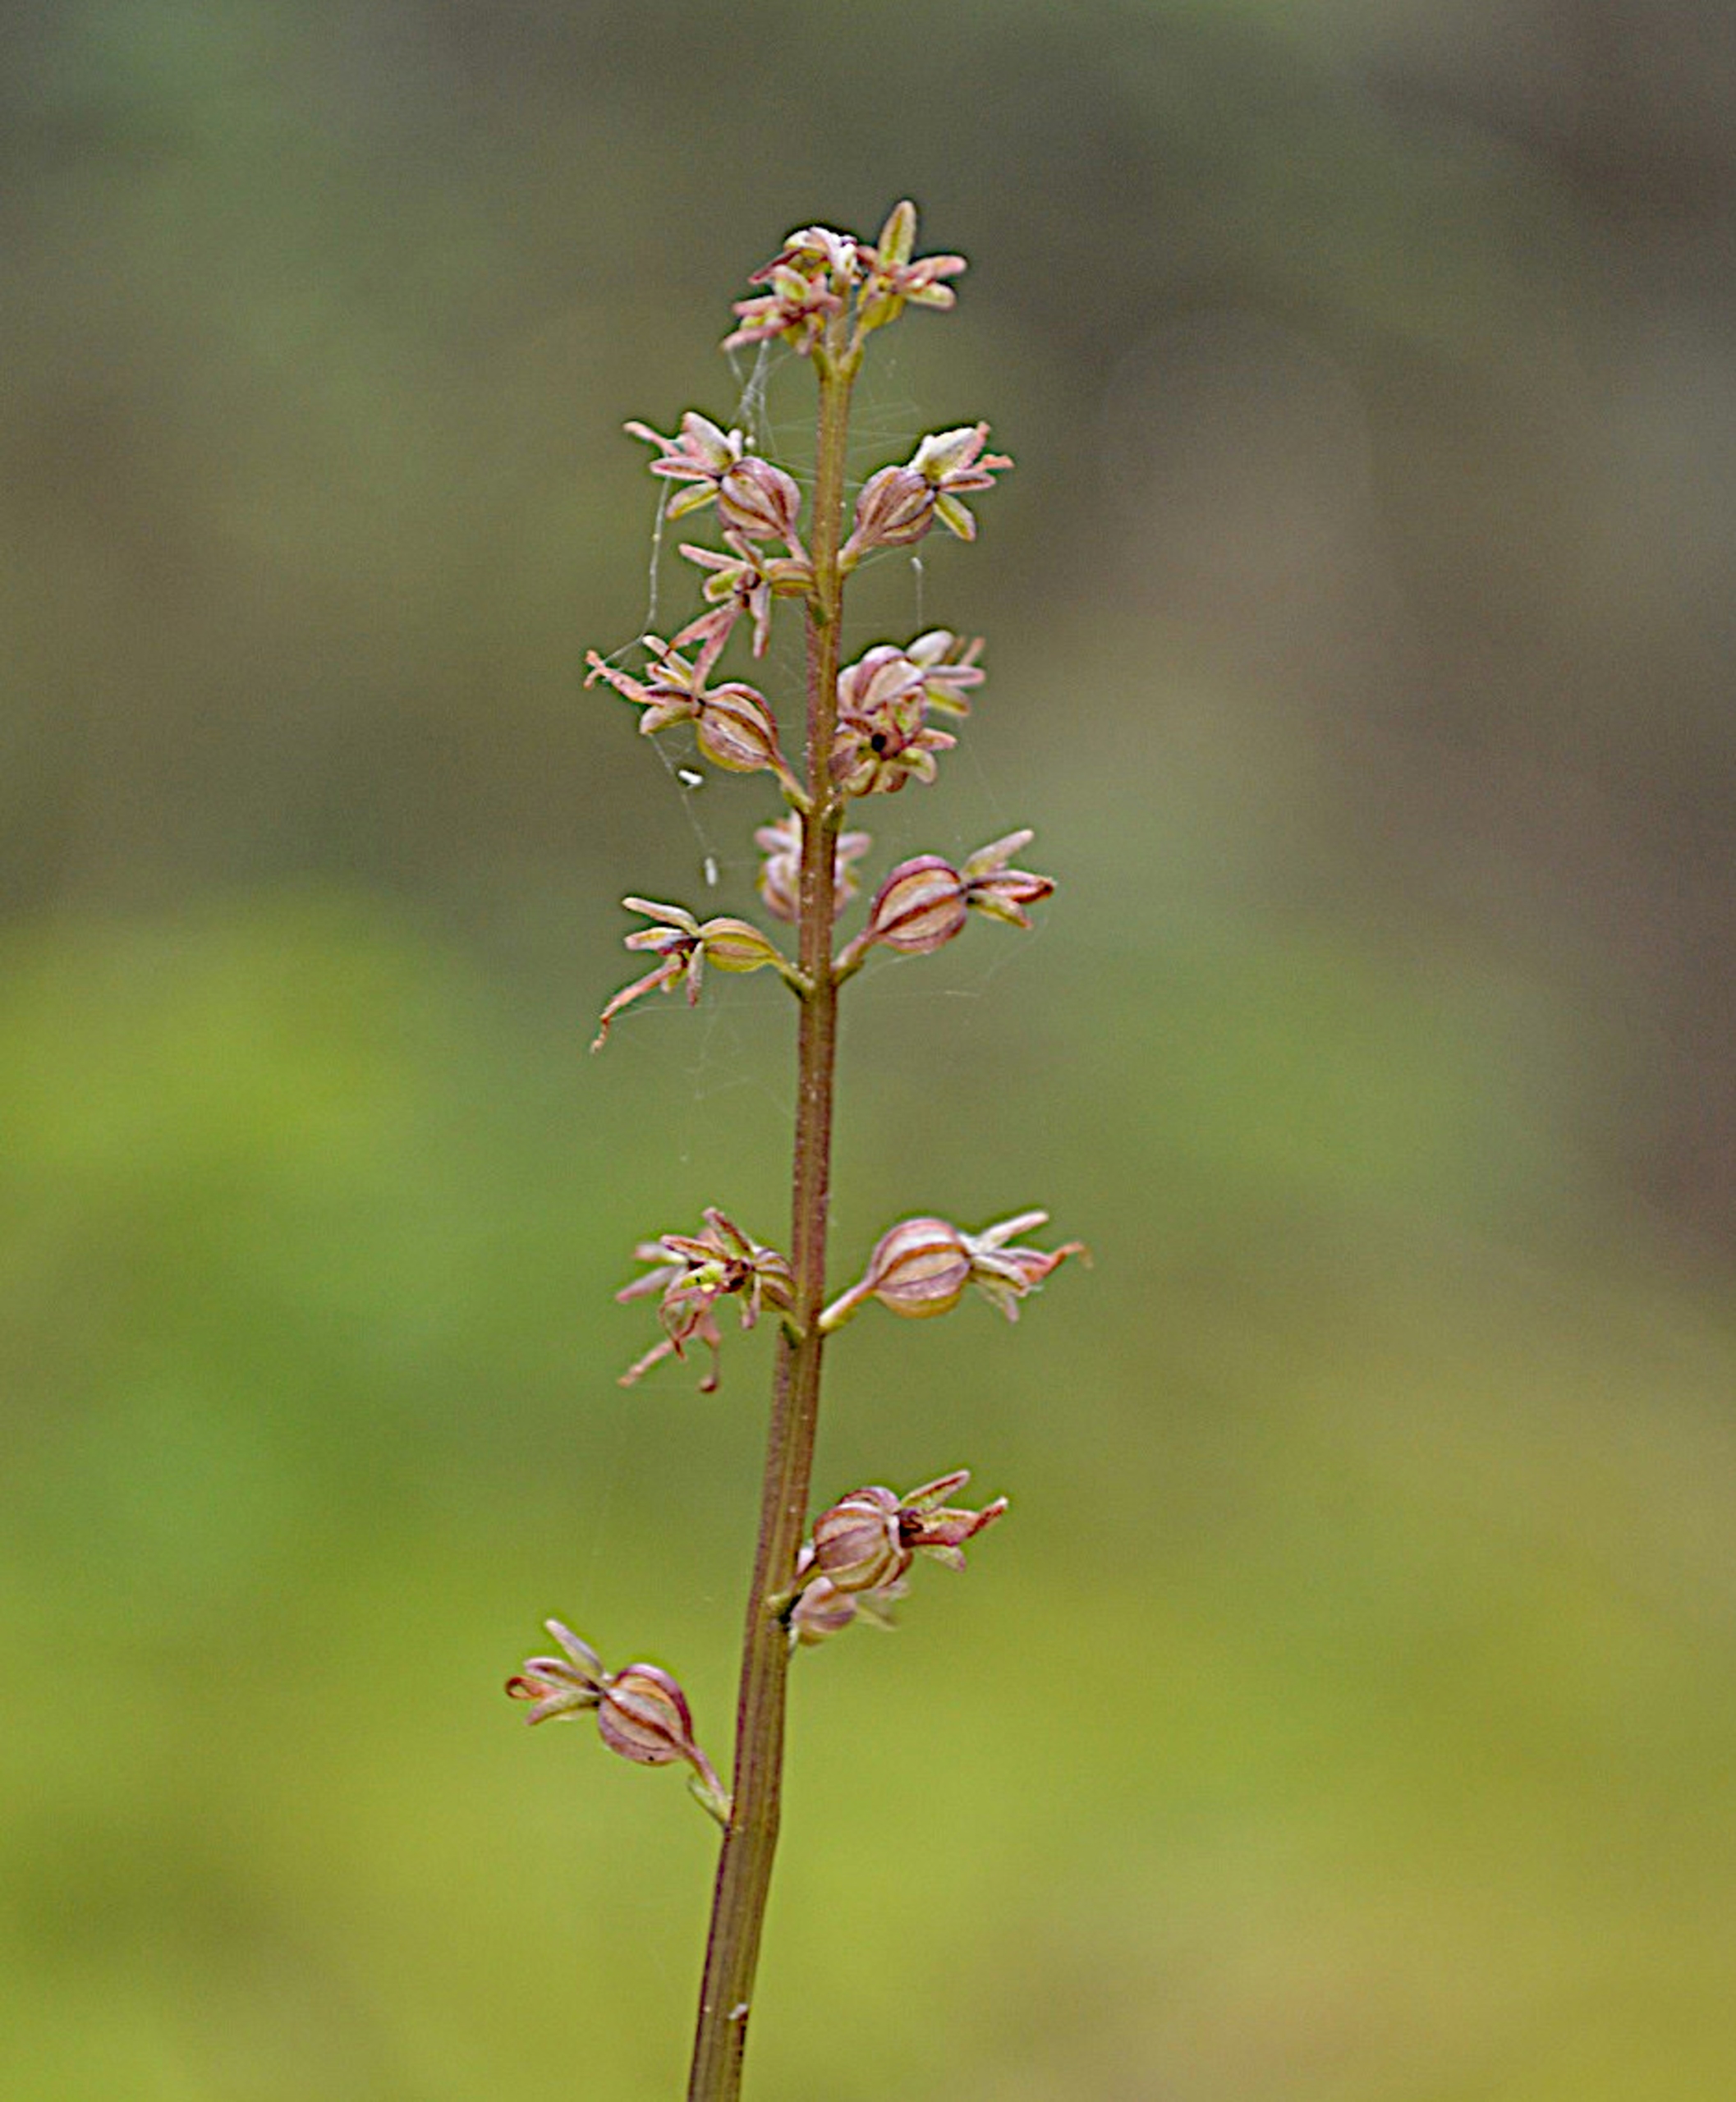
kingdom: Plantae
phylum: Tracheophyta
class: Liliopsida
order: Asparagales
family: Orchidaceae
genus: Neottia
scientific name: Neottia cordata
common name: Hjertebladet fliglæbe
